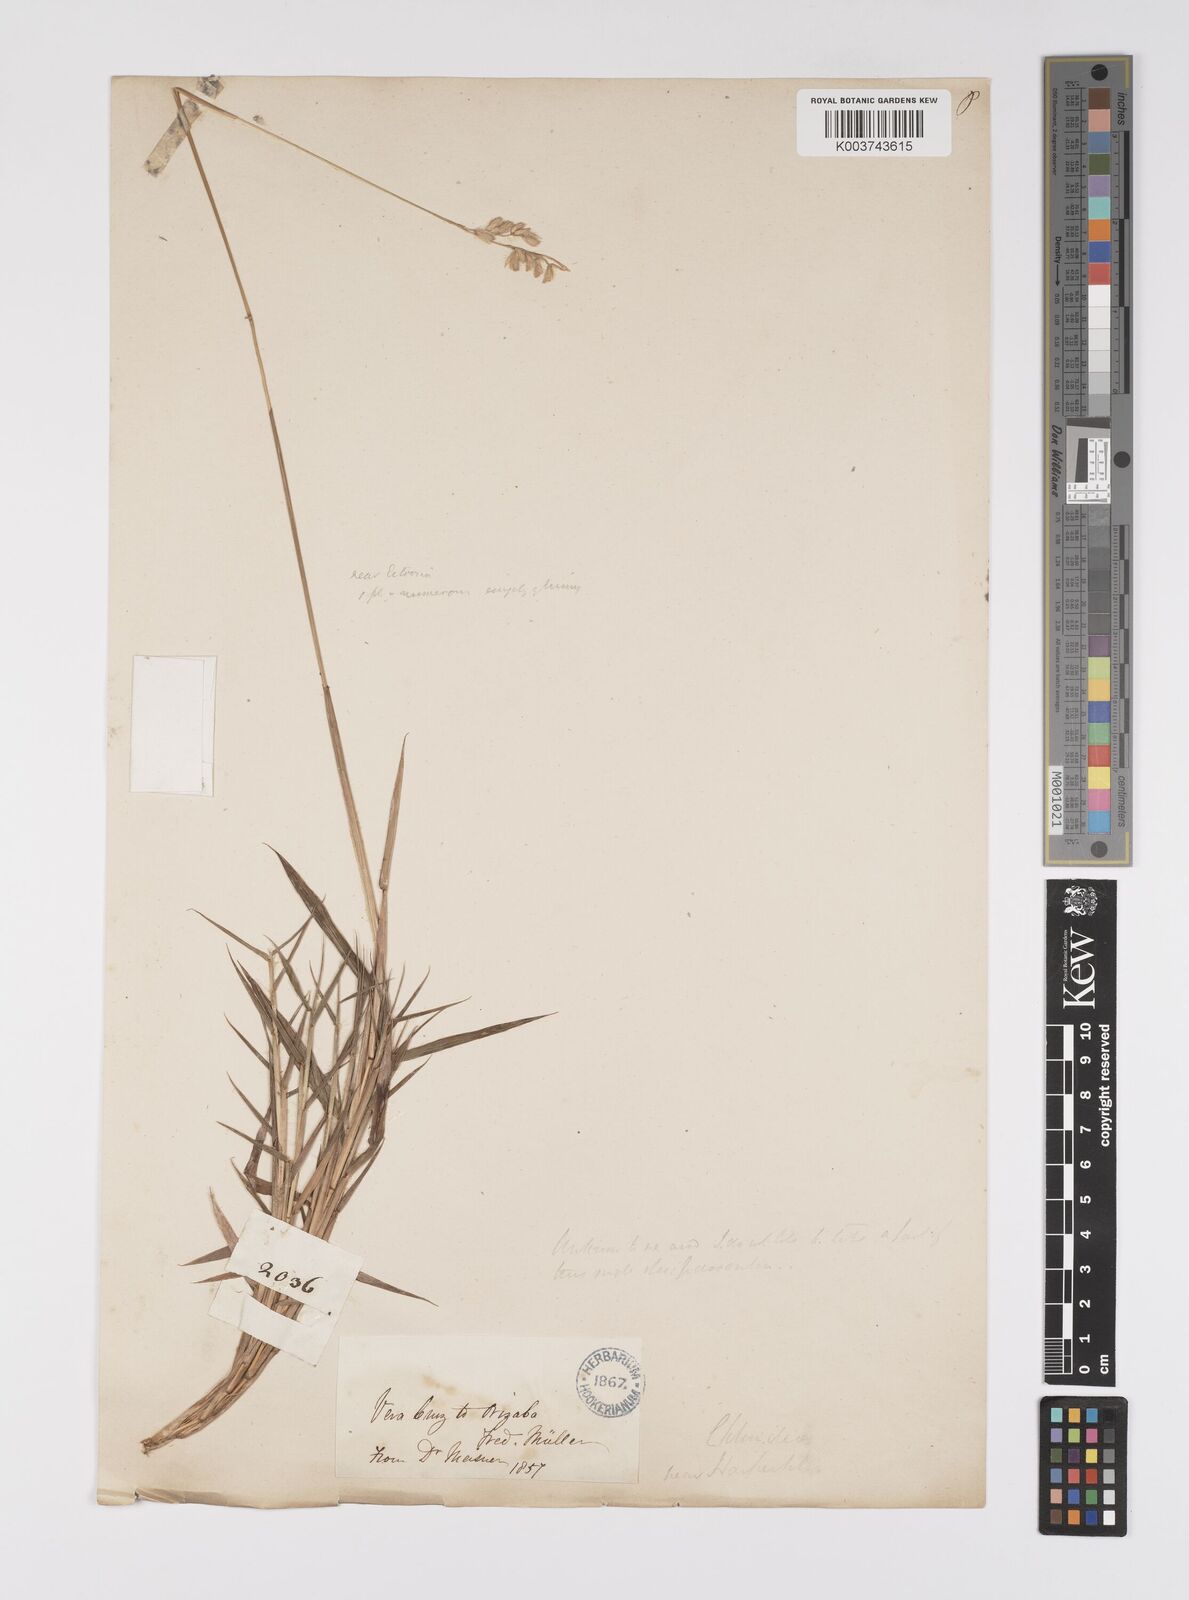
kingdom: Plantae
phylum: Tracheophyta
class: Liliopsida
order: Poales
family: Poaceae
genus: Urochloa
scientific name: Urochloa ciliatissima
